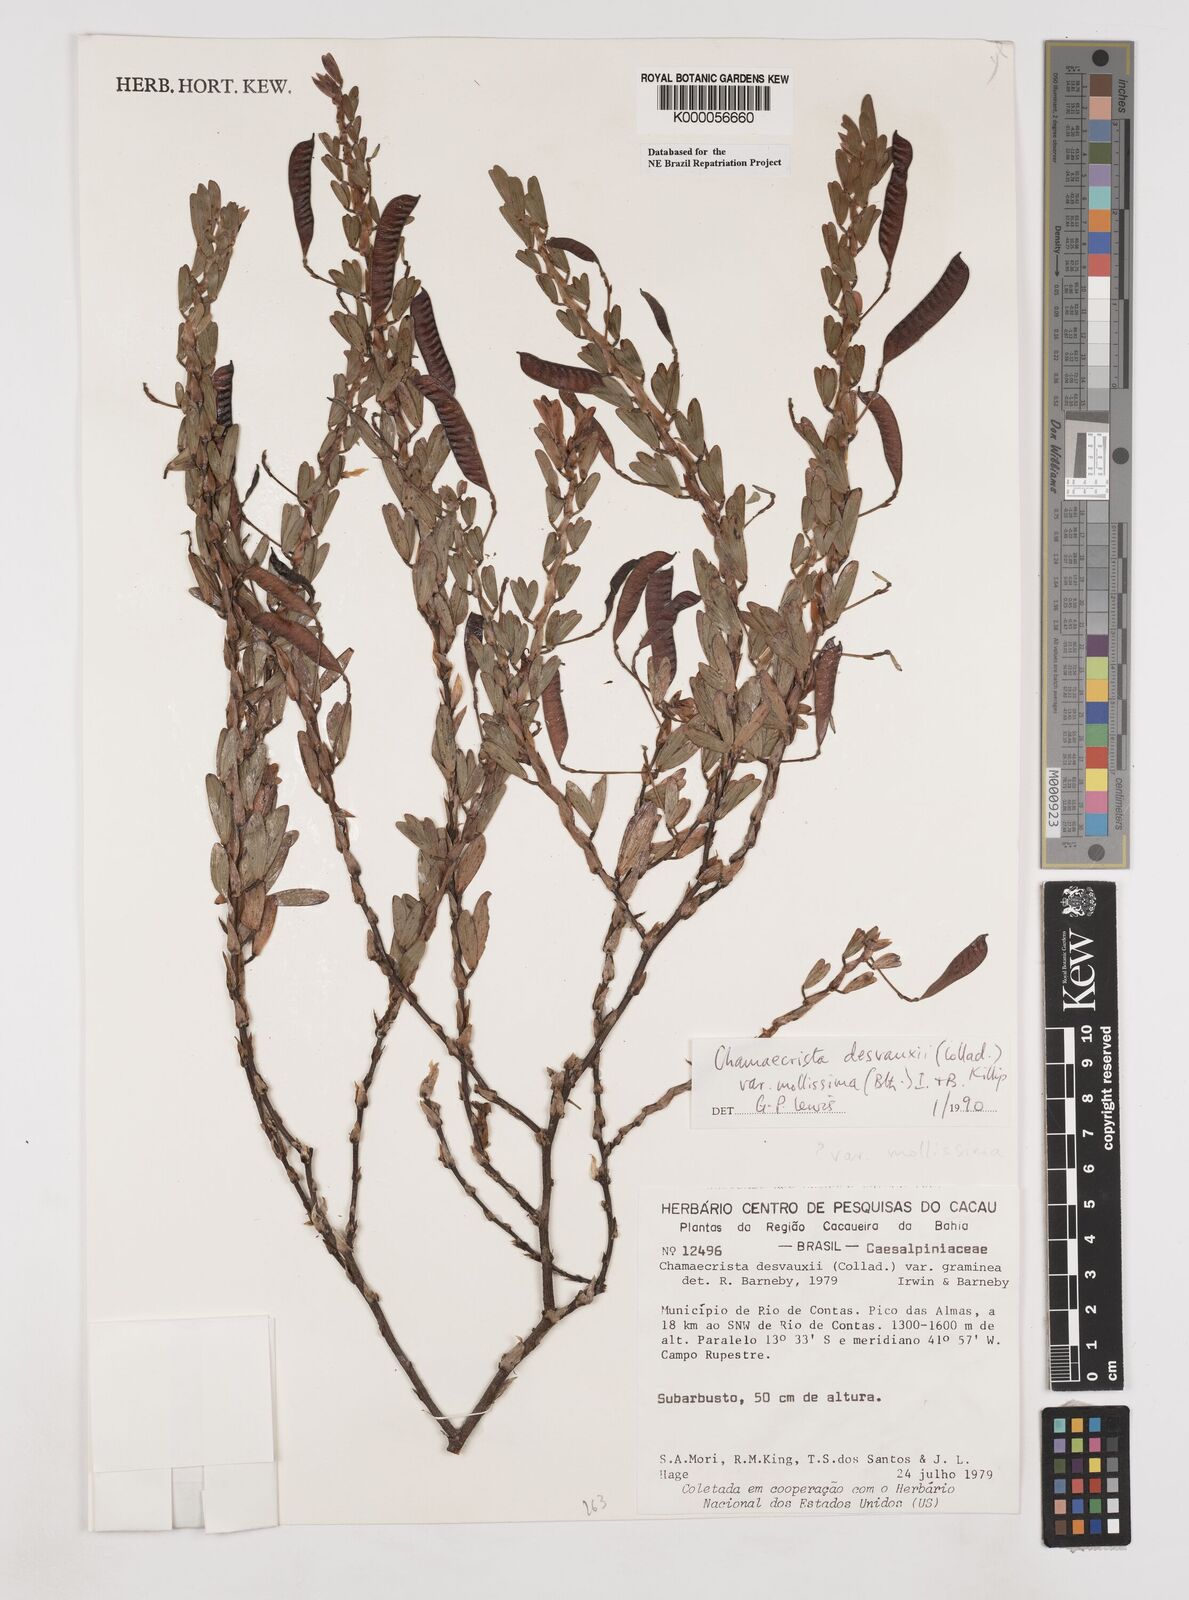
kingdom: Plantae
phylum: Tracheophyta
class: Magnoliopsida
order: Fabales
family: Fabaceae
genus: Chamaecrista
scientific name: Chamaecrista desvauxii
